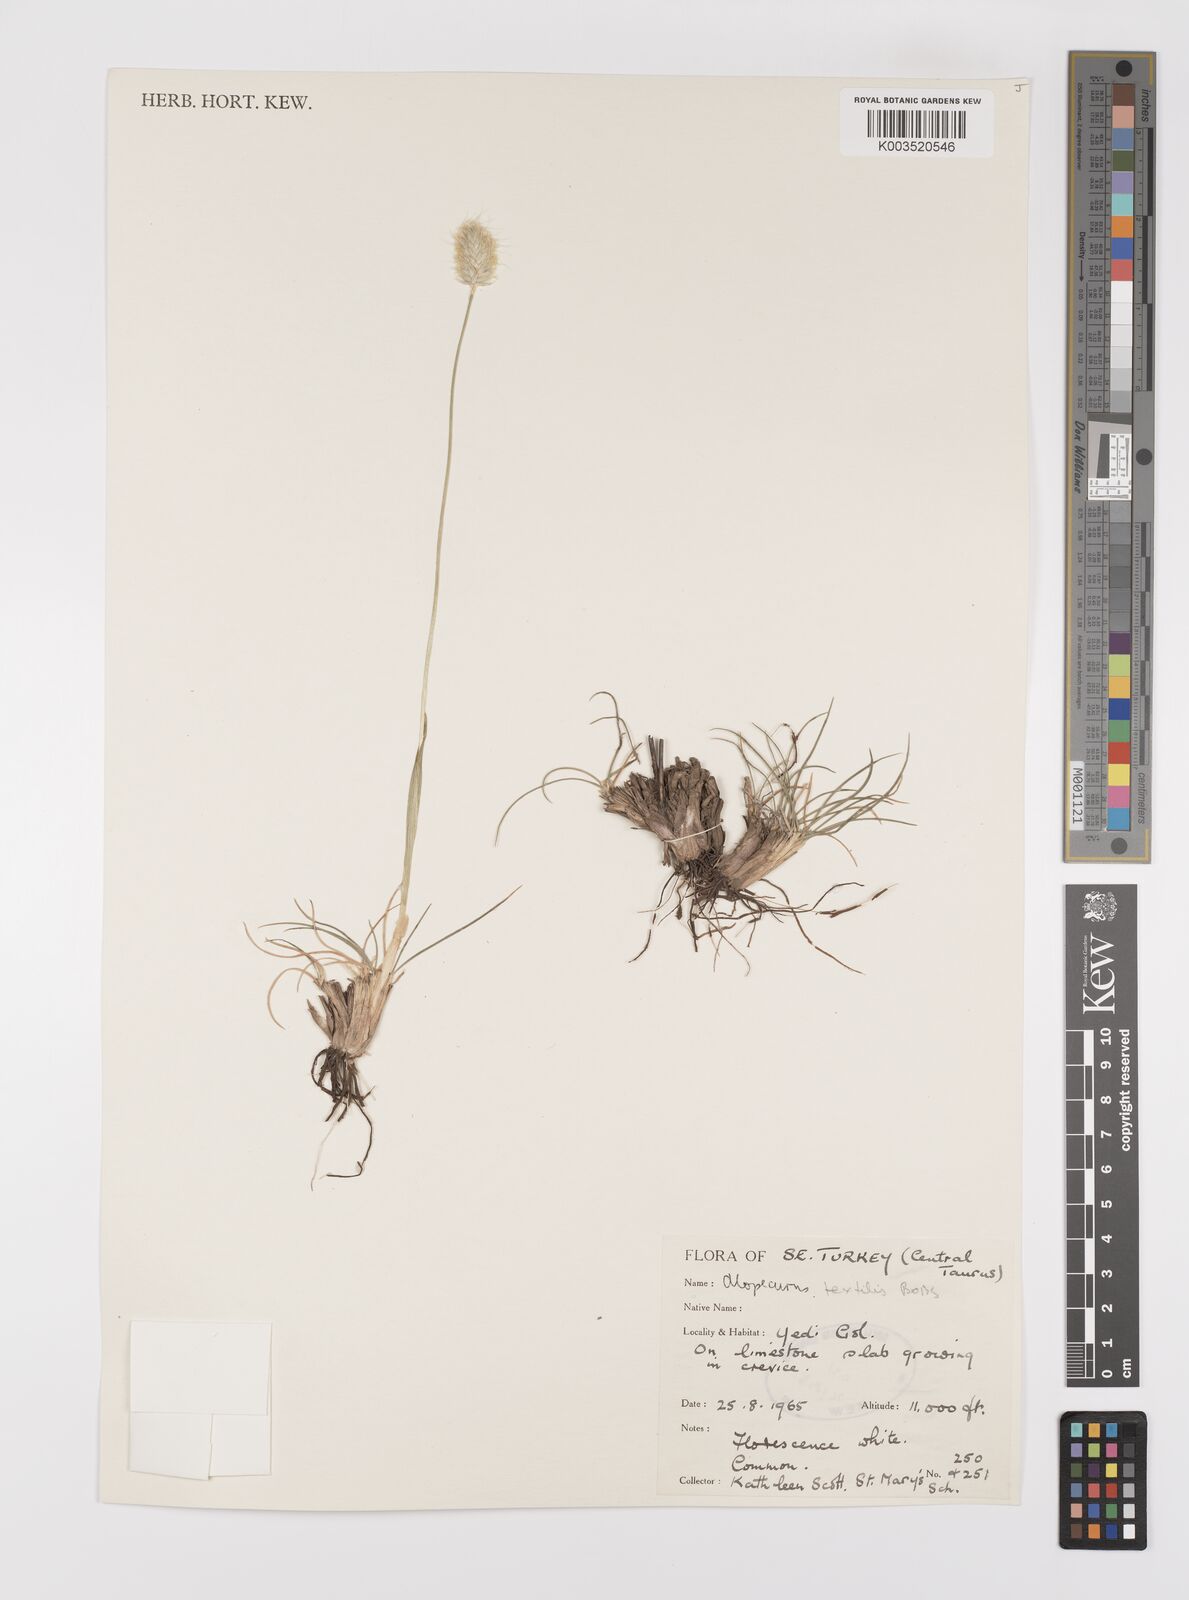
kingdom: Plantae
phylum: Tracheophyta
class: Liliopsida
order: Poales
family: Poaceae
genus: Alopecurus
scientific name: Alopecurus textilis
